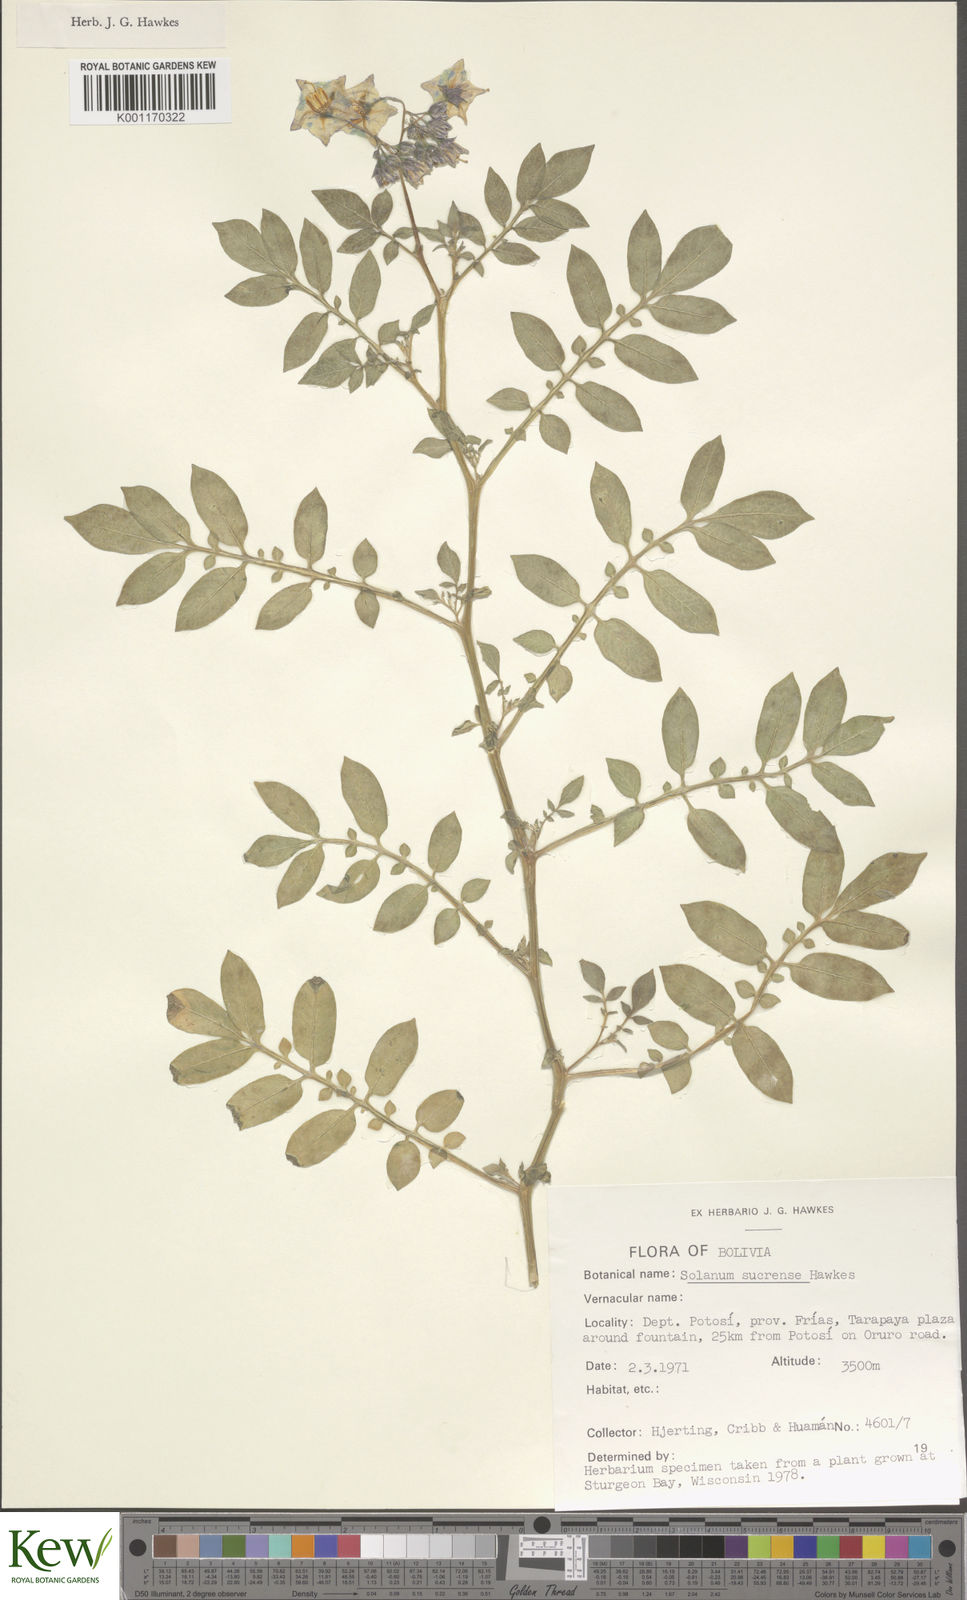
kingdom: Plantae
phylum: Tracheophyta
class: Magnoliopsida
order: Solanales
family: Solanaceae
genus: Solanum
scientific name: Solanum brevicaule
